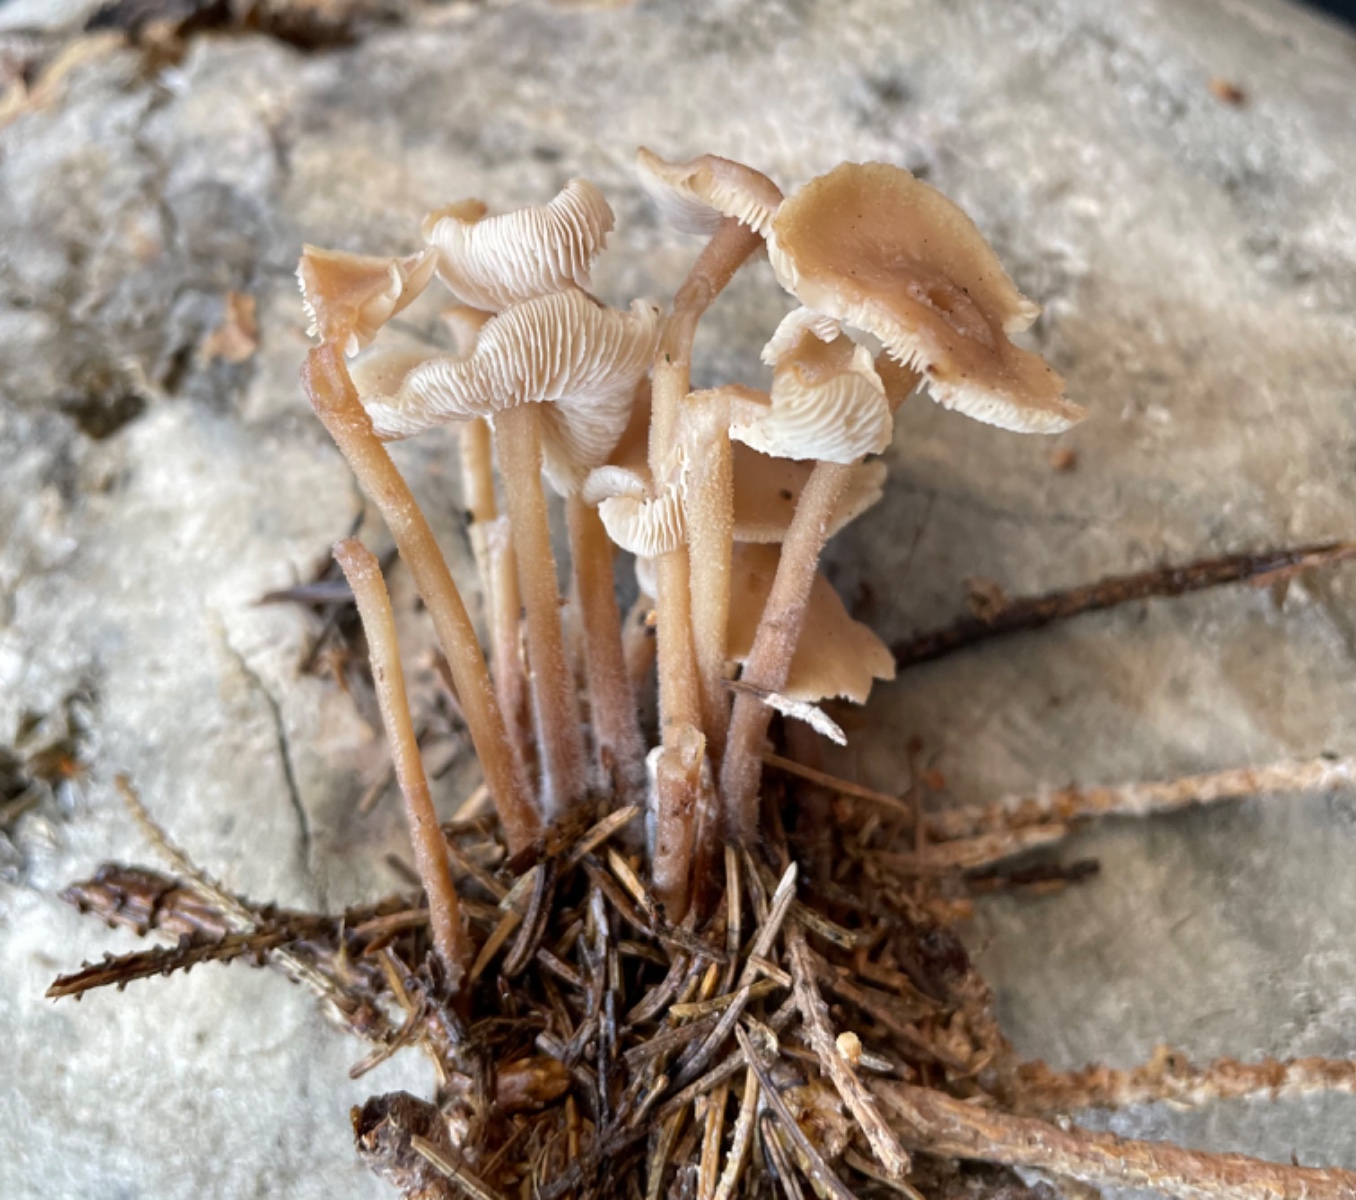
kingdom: Fungi
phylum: Basidiomycota
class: Agaricomycetes
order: Agaricales
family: Omphalotaceae
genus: Collybiopsis
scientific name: Collybiopsis confluens
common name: knippe-fladhat
